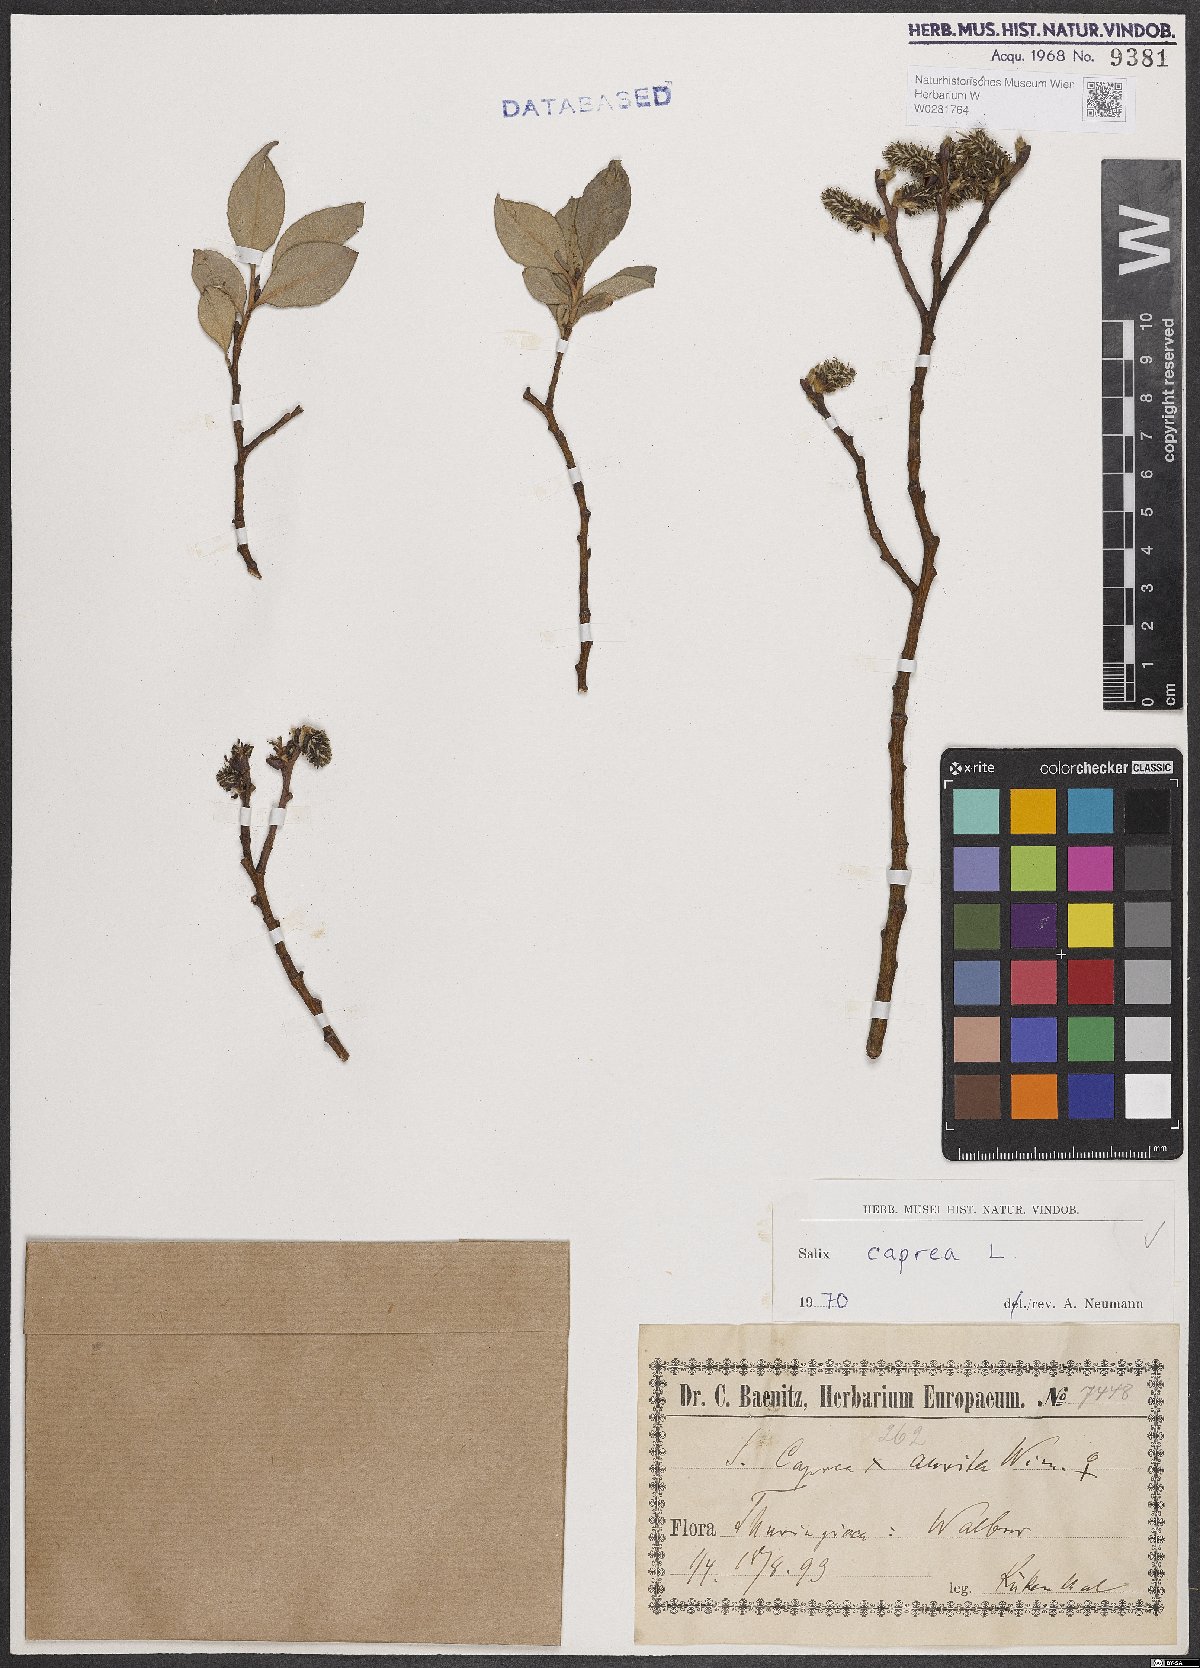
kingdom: Plantae
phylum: Tracheophyta
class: Magnoliopsida
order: Malpighiales
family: Salicaceae
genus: Salix
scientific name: Salix caprea
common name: Goat willow
